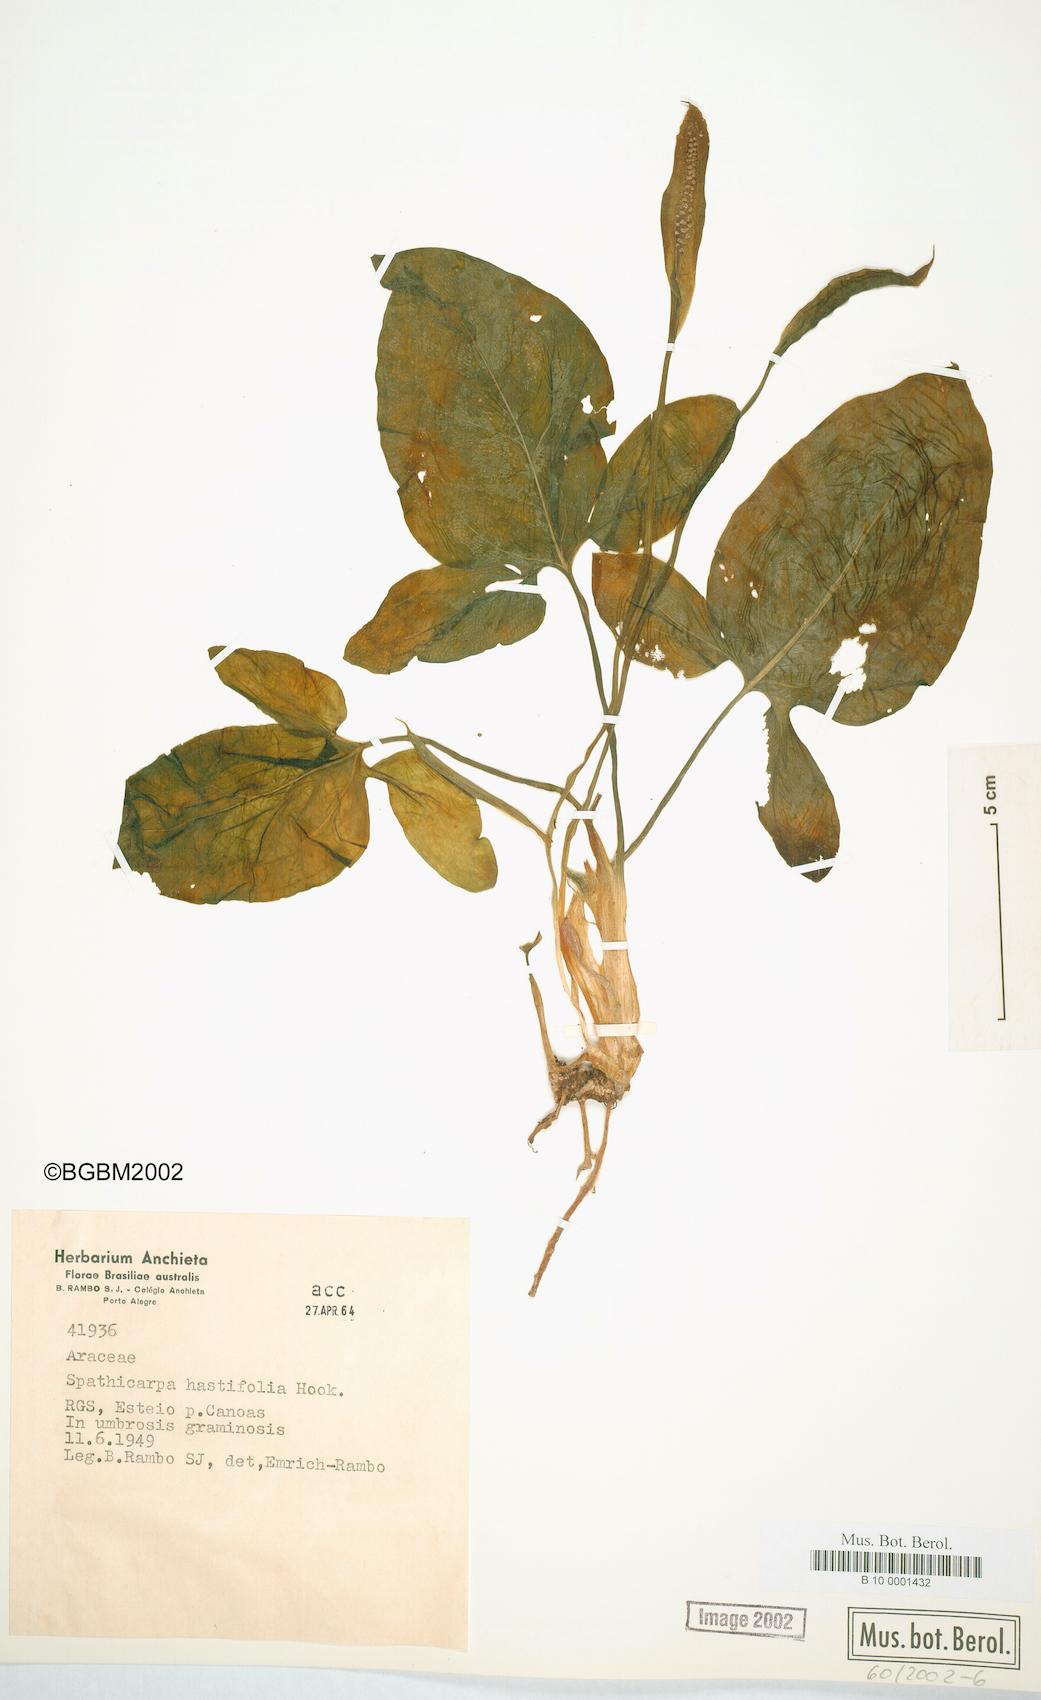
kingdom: Plantae
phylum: Tracheophyta
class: Liliopsida
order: Alismatales
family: Araceae
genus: Spathicarpa
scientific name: Spathicarpa hastifolia
